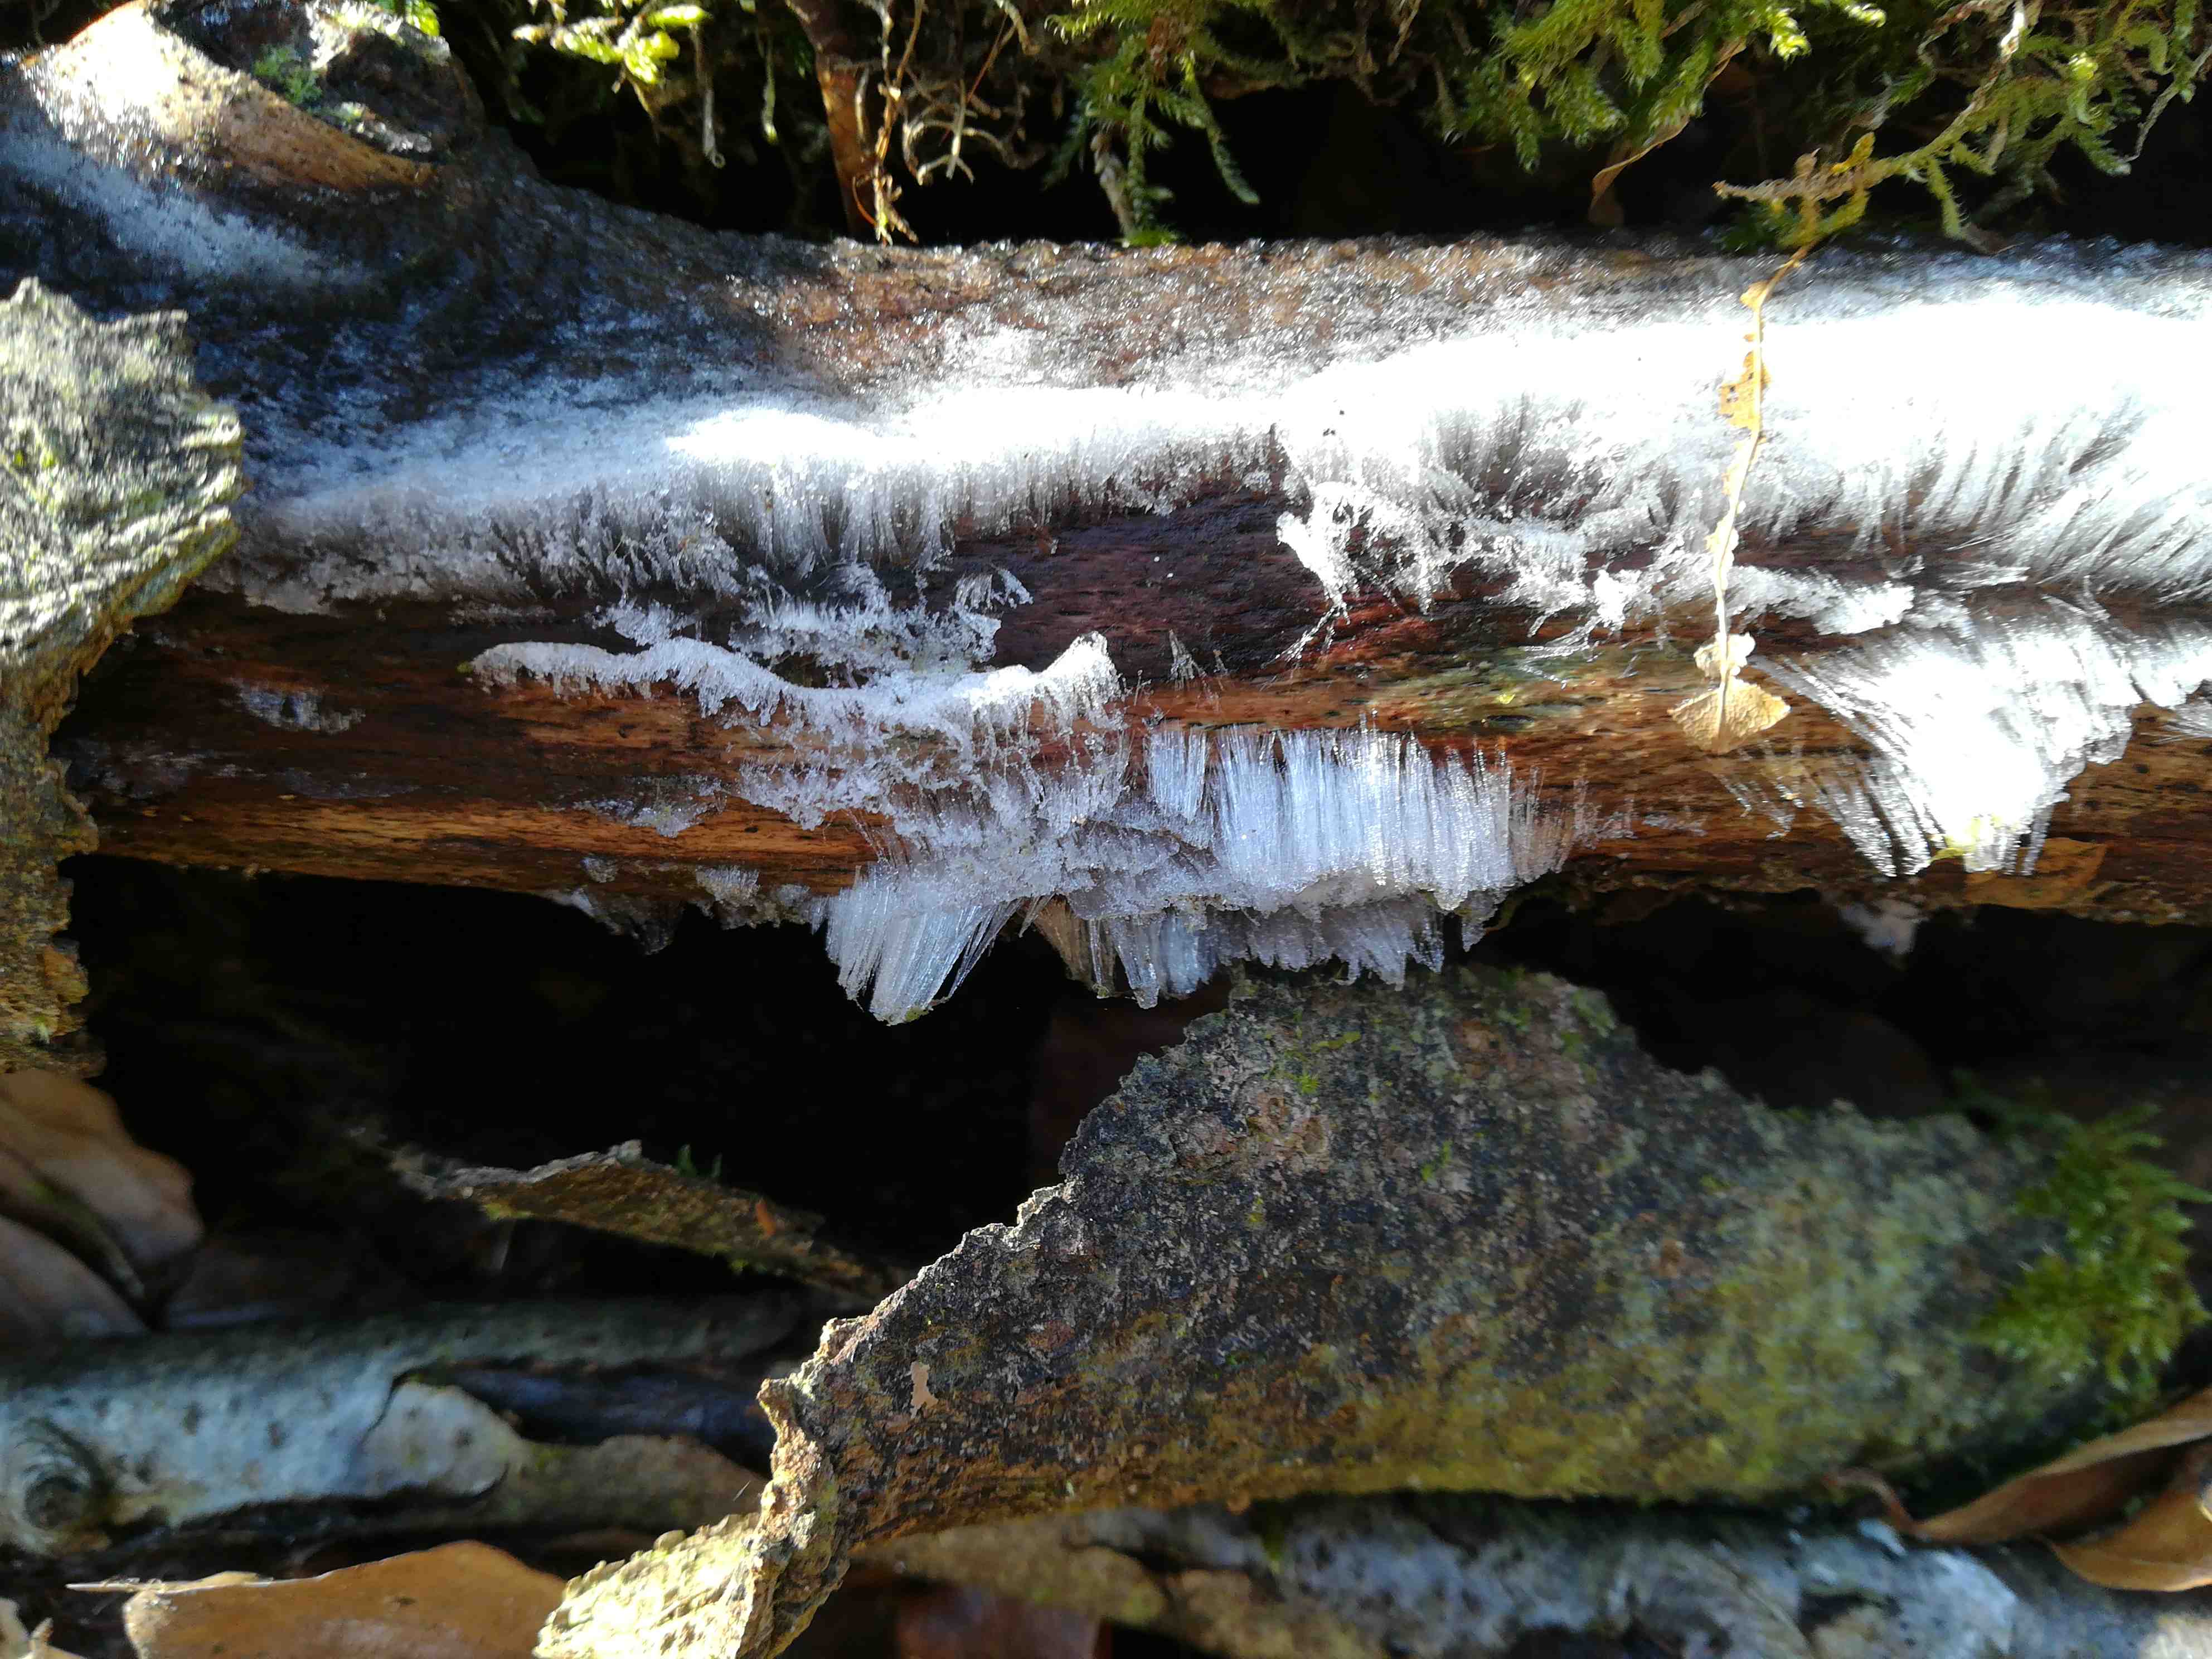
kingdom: Fungi
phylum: Basidiomycota
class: Tremellomycetes
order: Tremellales
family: Exidiaceae
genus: Exidiopsis
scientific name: Exidiopsis effusa
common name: smuk bævrehinde
